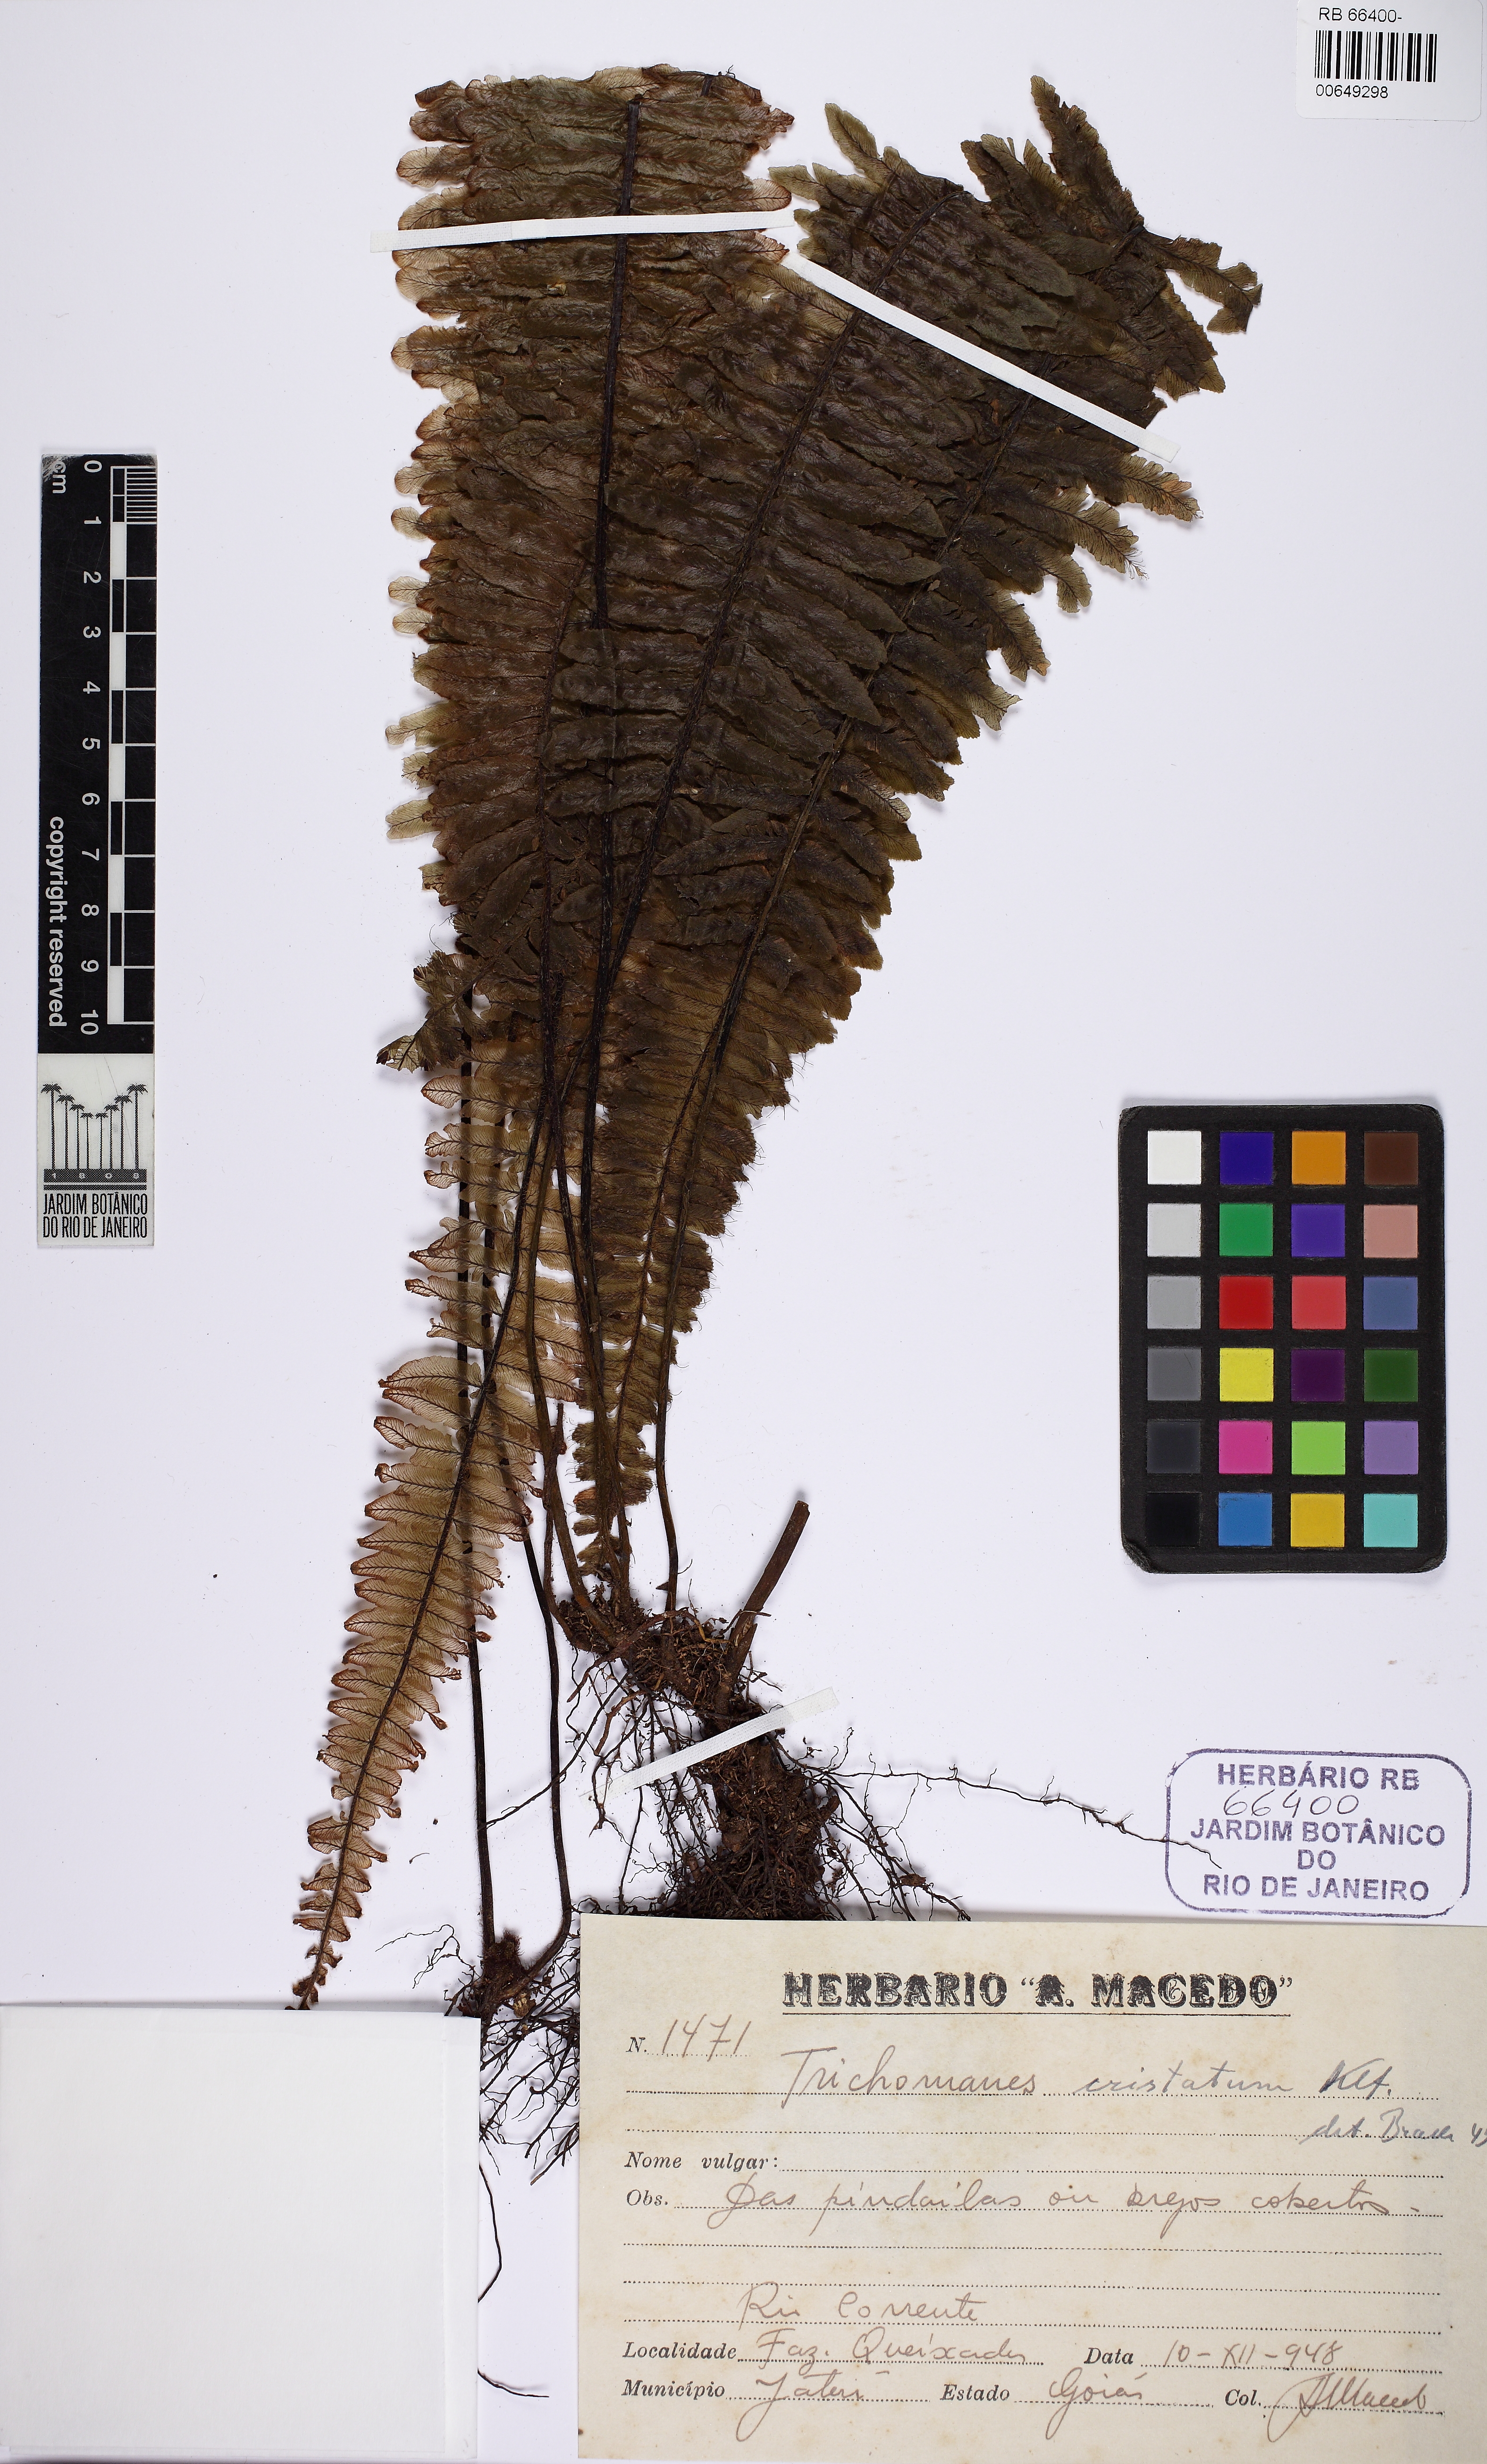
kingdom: Plantae
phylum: Tracheophyta
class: Polypodiopsida
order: Hymenophyllales
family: Hymenophyllaceae
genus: Trichomanes
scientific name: Trichomanes cristatum
